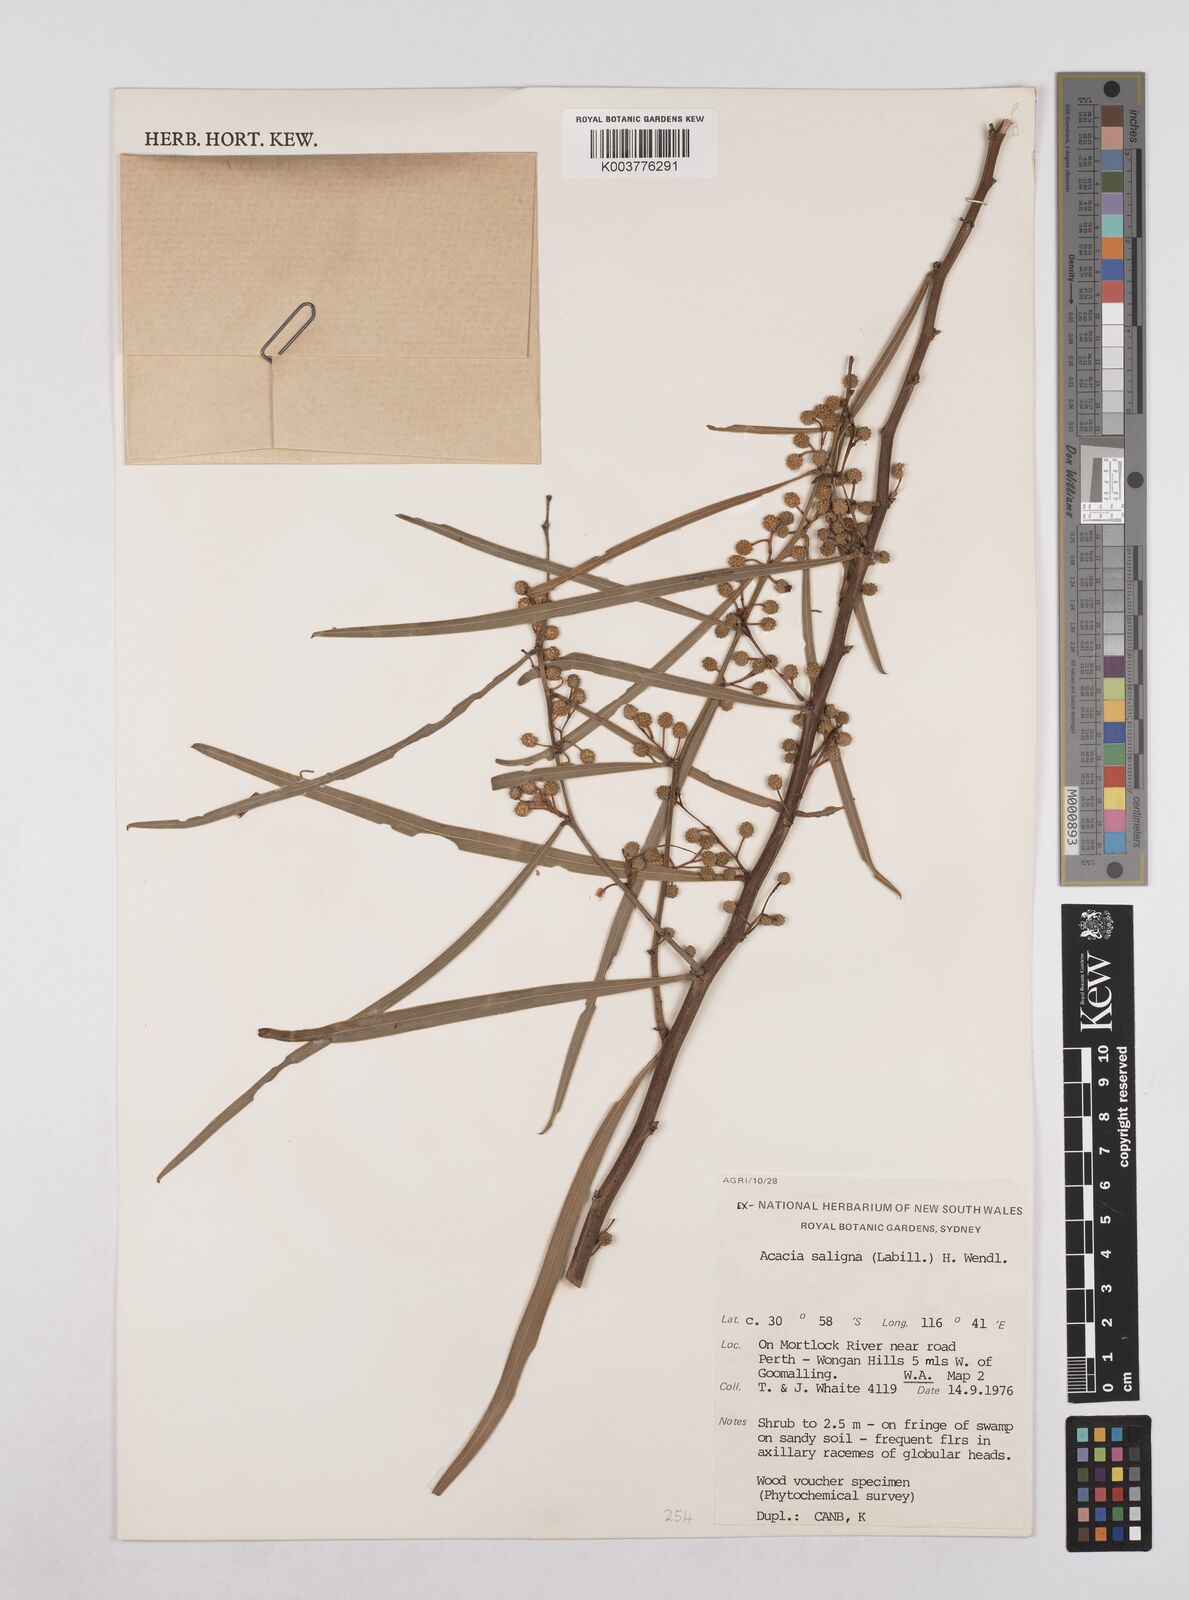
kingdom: Plantae
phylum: Tracheophyta
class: Magnoliopsida
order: Fabales
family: Fabaceae
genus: Acacia
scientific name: Acacia saligna
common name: Orange wattle
